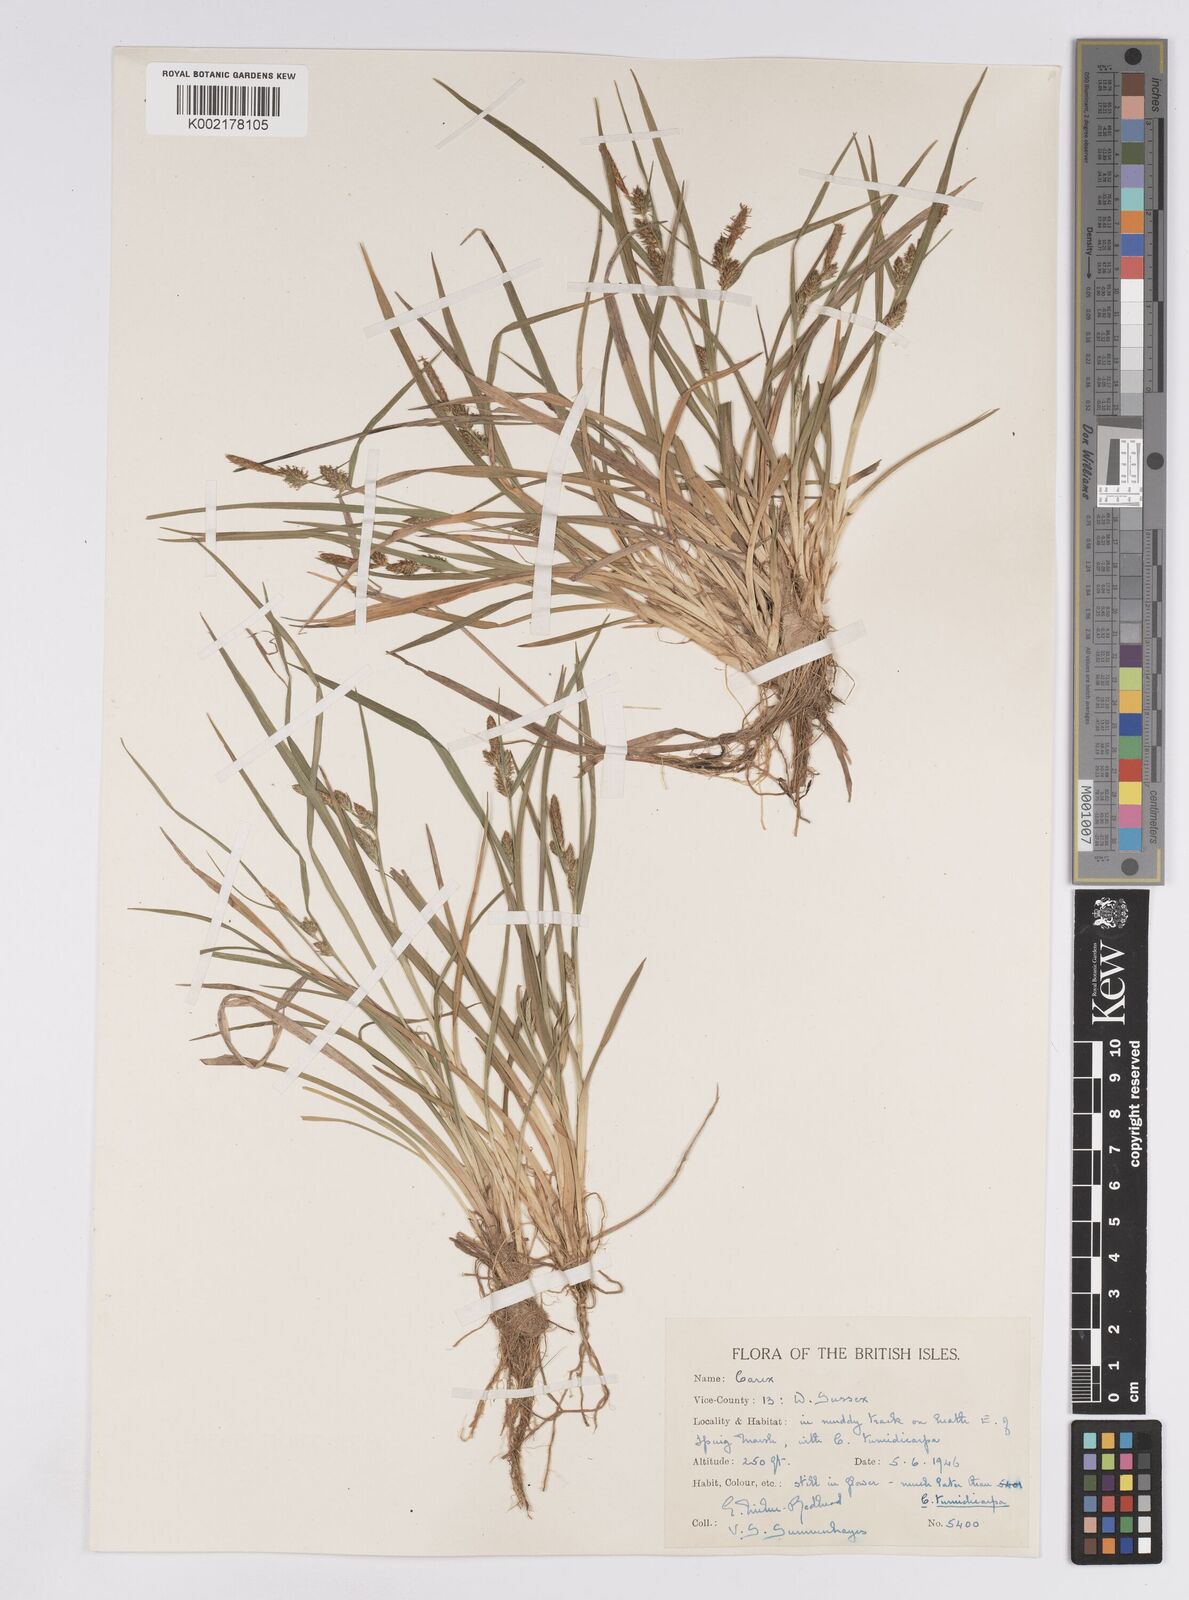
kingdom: Plantae
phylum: Tracheophyta
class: Liliopsida
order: Poales
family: Cyperaceae
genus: Carex
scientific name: Carex demissa
